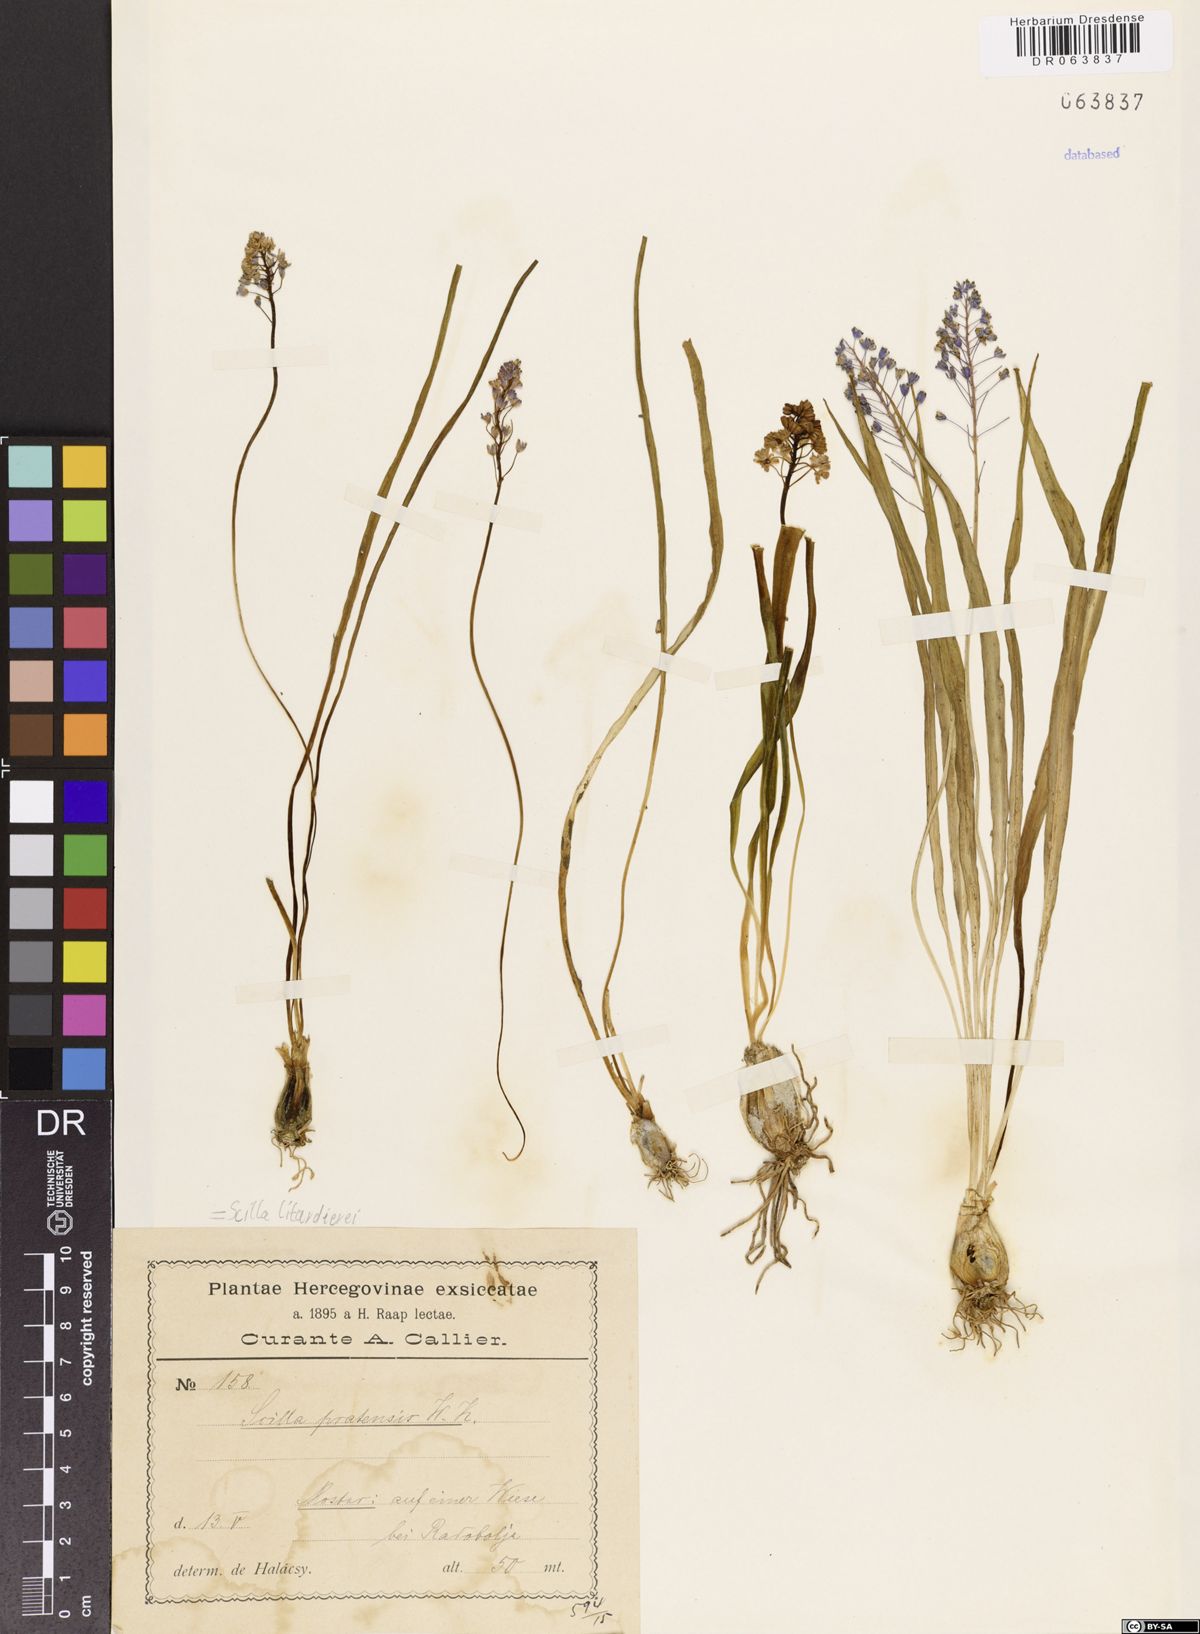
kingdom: Plantae
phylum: Tracheophyta
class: Liliopsida
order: Asparagales
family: Asparagaceae
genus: Scilla
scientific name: Scilla litardierei
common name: Amethyst meadow squill
